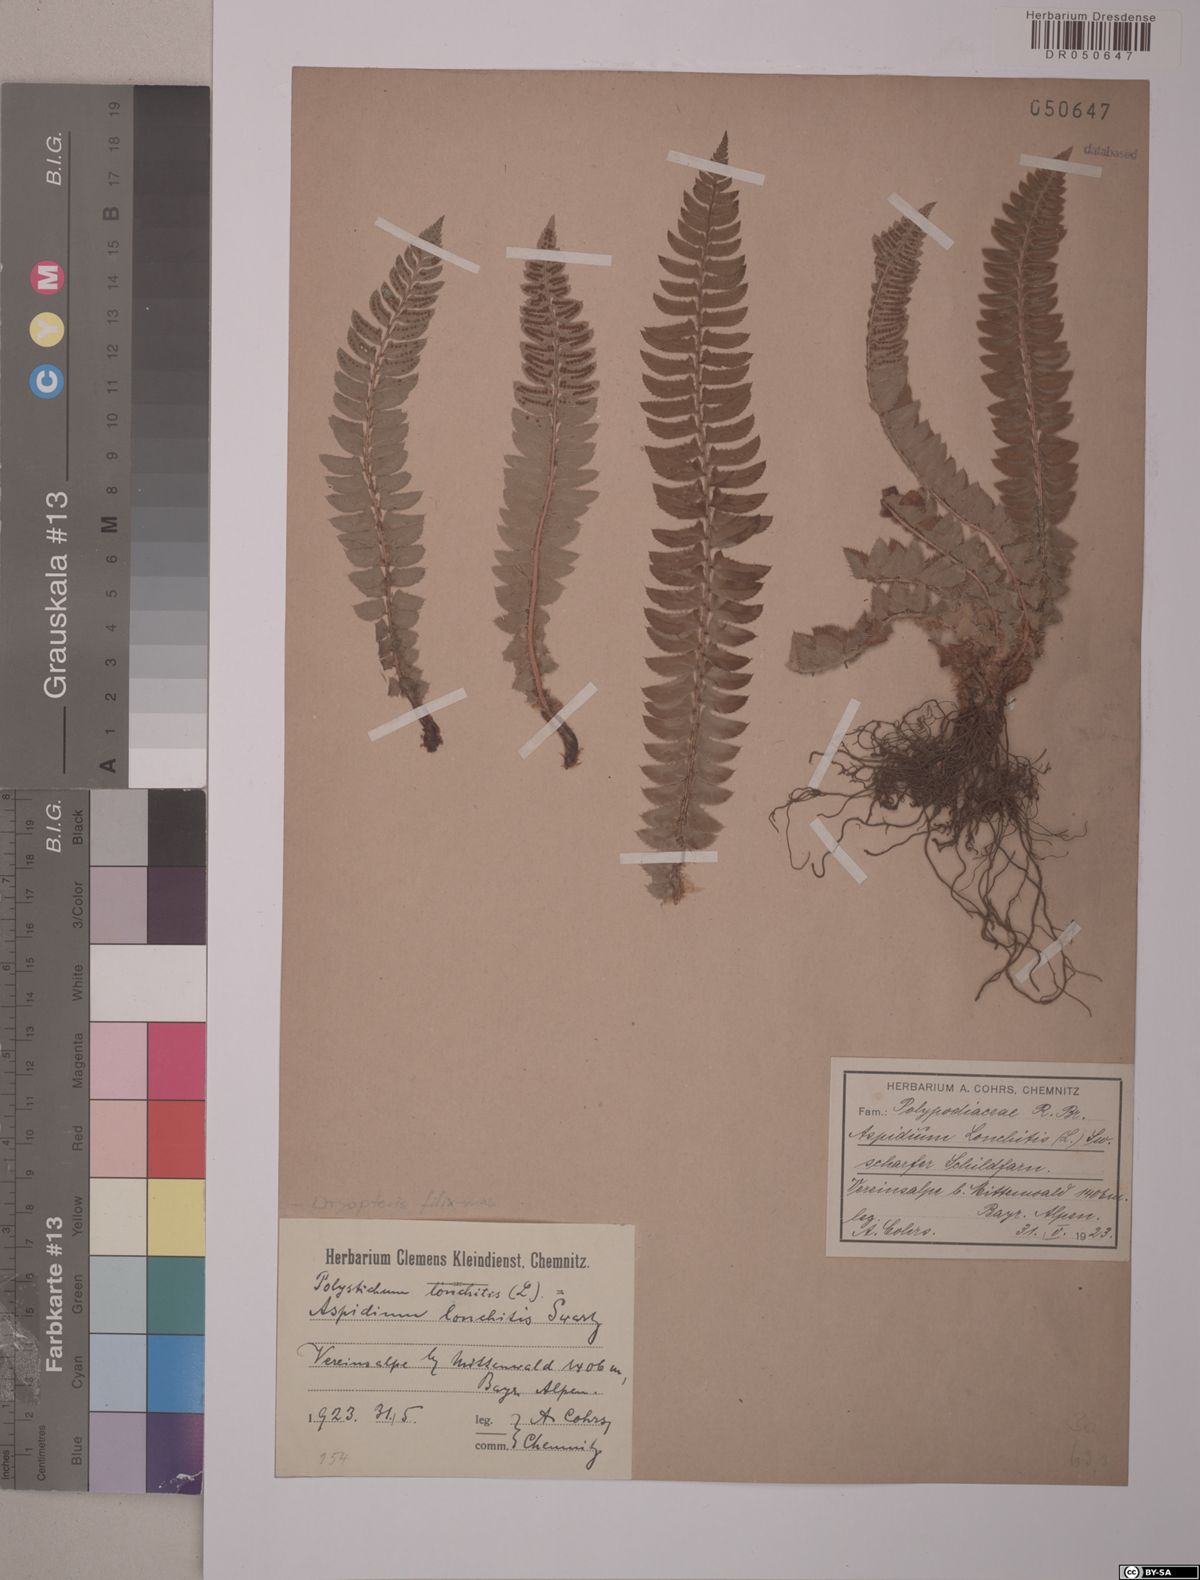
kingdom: Plantae
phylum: Tracheophyta
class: Polypodiopsida
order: Polypodiales
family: Dryopteridaceae
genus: Polystichum
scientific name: Polystichum lonchitis
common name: Holly fern
